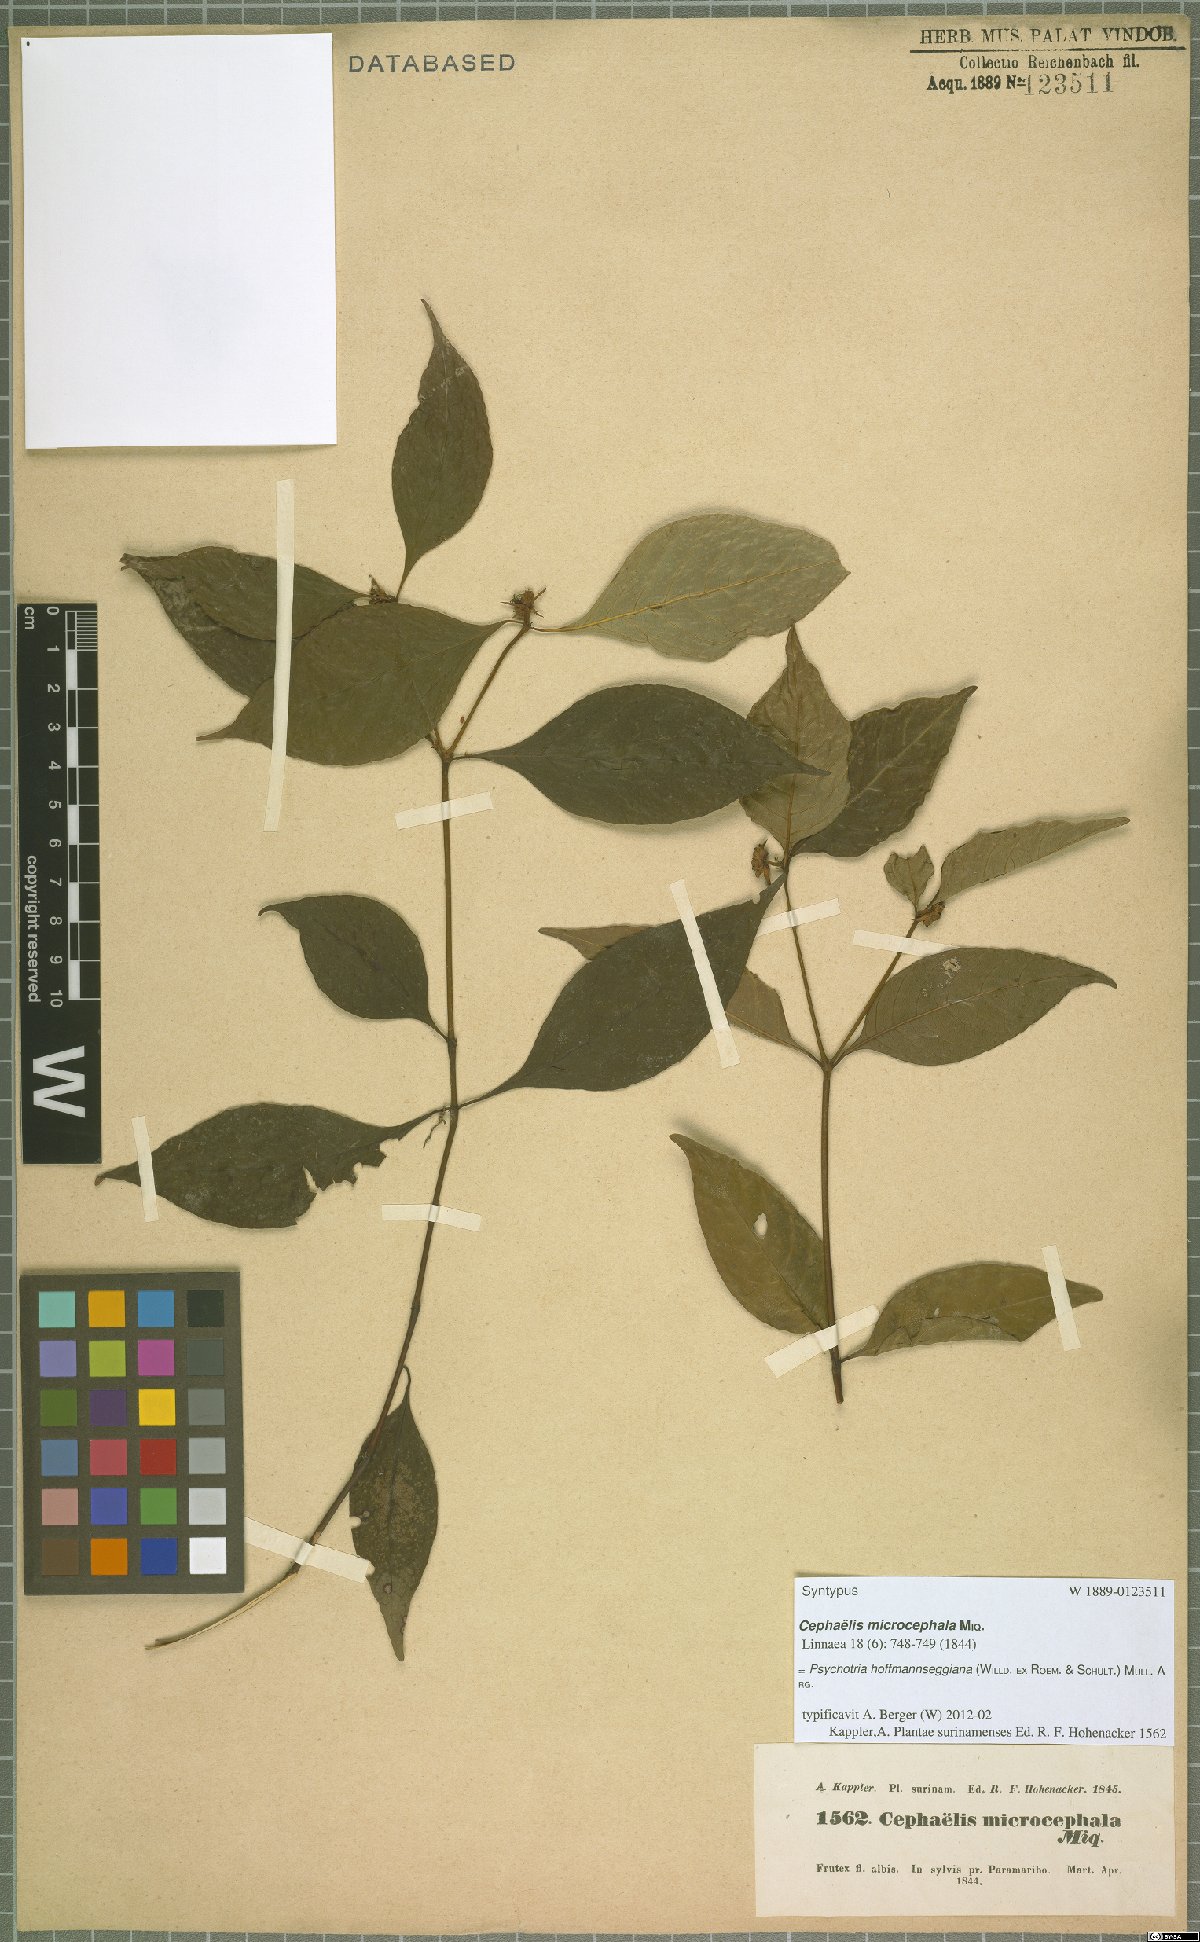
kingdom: Plantae
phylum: Tracheophyta
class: Magnoliopsida
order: Gentianales
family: Rubiaceae
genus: Palicourea
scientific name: Palicourea hoffmannseggiana
